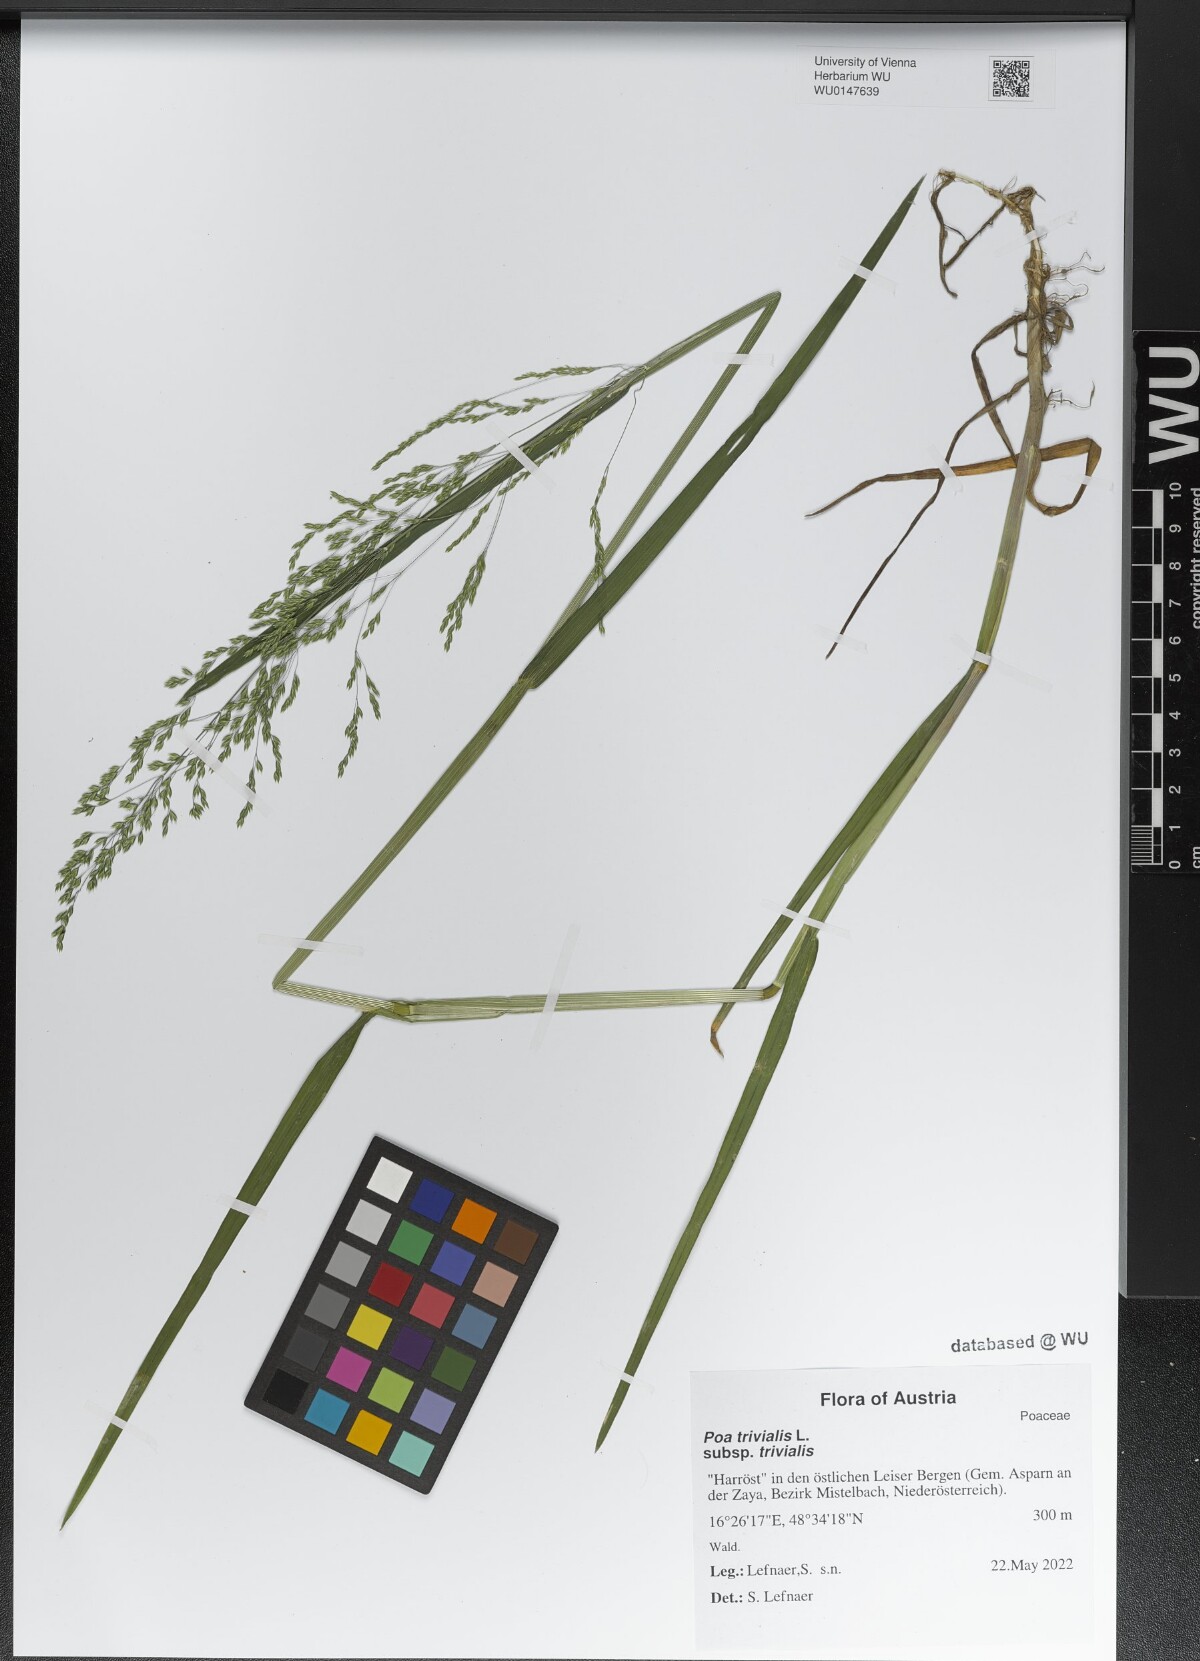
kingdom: Plantae
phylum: Tracheophyta
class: Liliopsida
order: Poales
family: Poaceae
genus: Poa
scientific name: Poa trivialis
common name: Rough bluegrass
